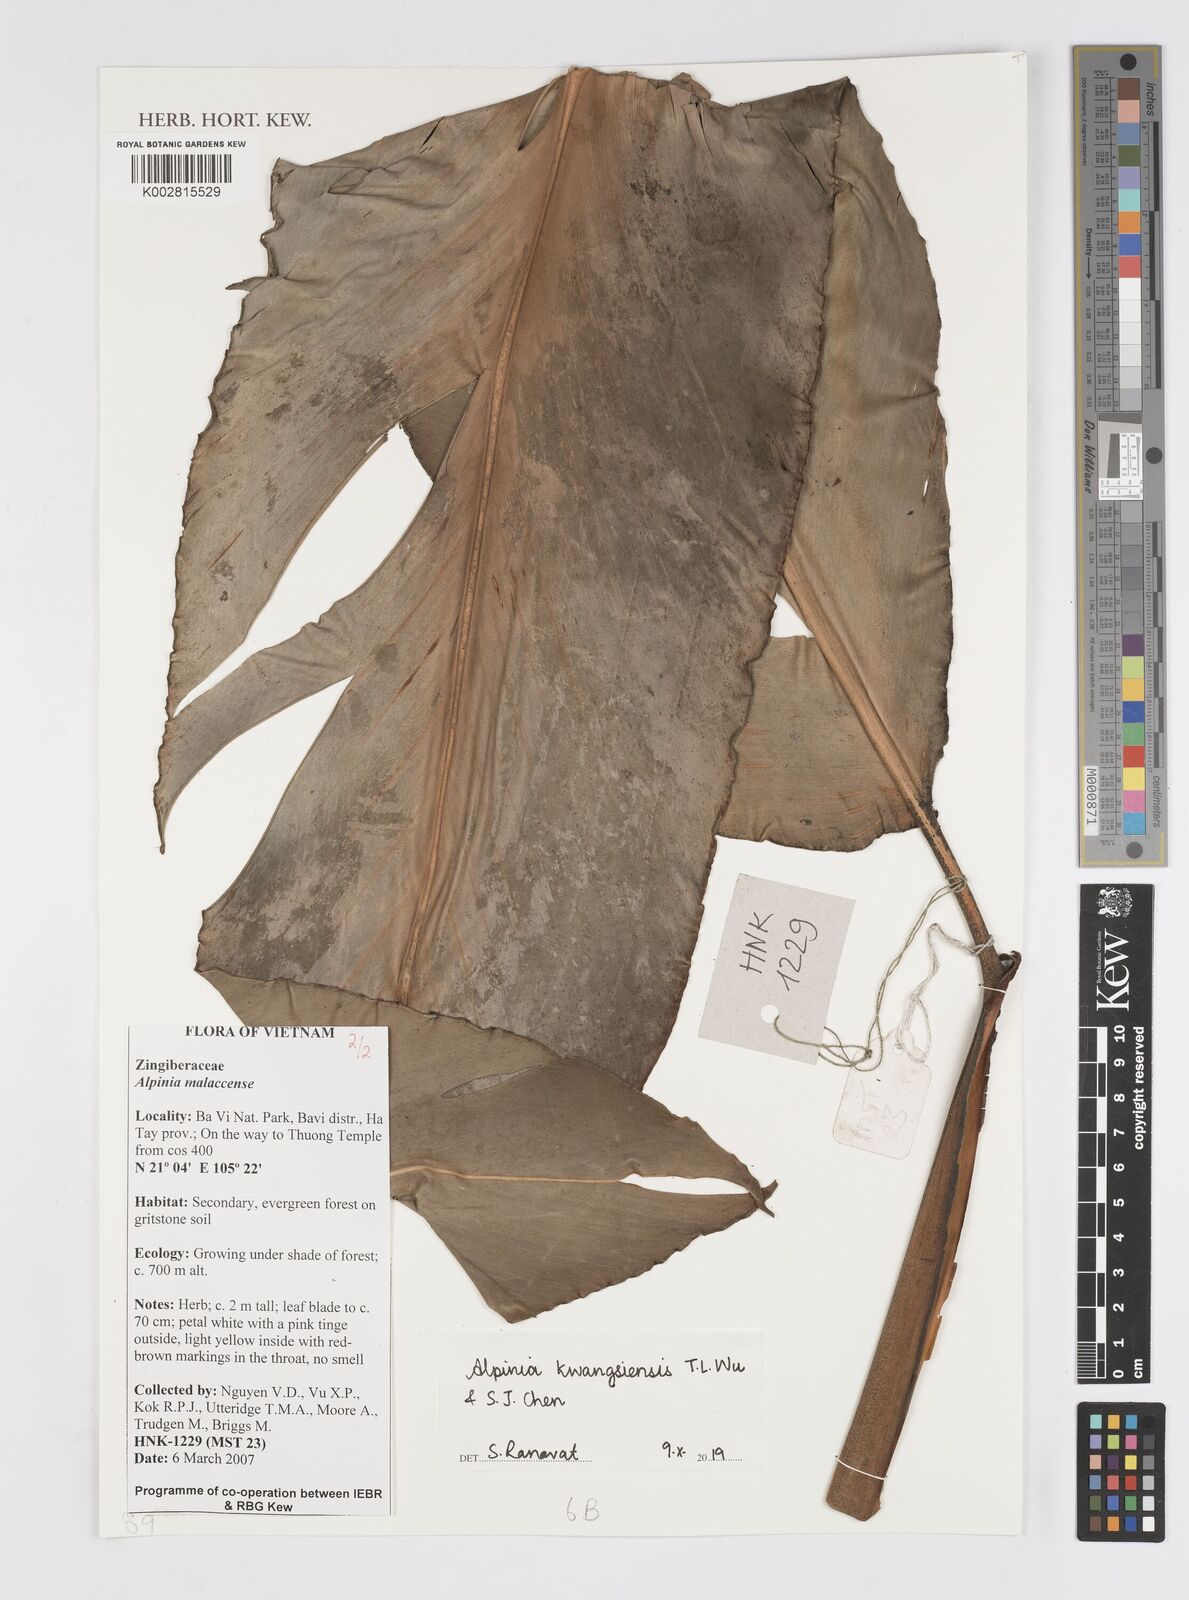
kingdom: Plantae
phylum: Tracheophyta
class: Liliopsida
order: Zingiberales
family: Zingiberaceae
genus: Alpinia
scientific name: Alpinia kwangsiensis
